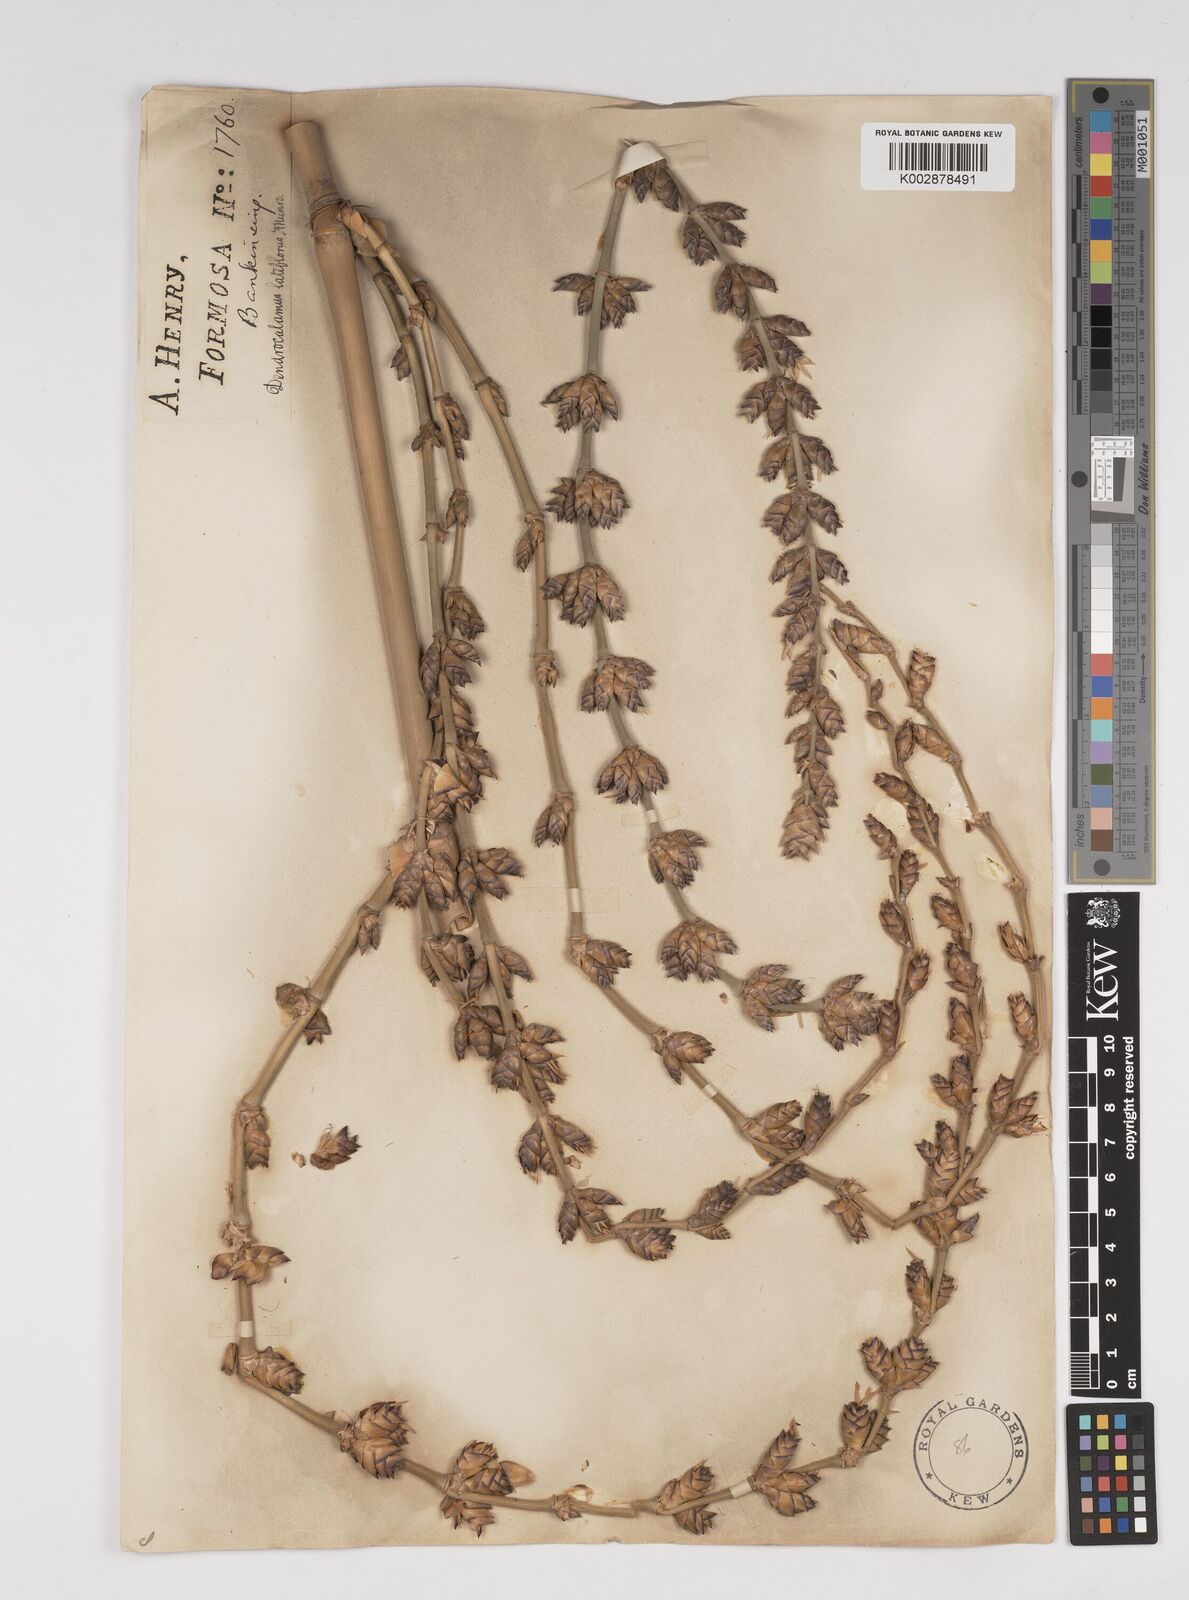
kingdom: Plantae
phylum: Tracheophyta
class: Liliopsida
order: Poales
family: Poaceae
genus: Dendrocalamus
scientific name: Dendrocalamus latiflorus
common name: Giant bamboo
